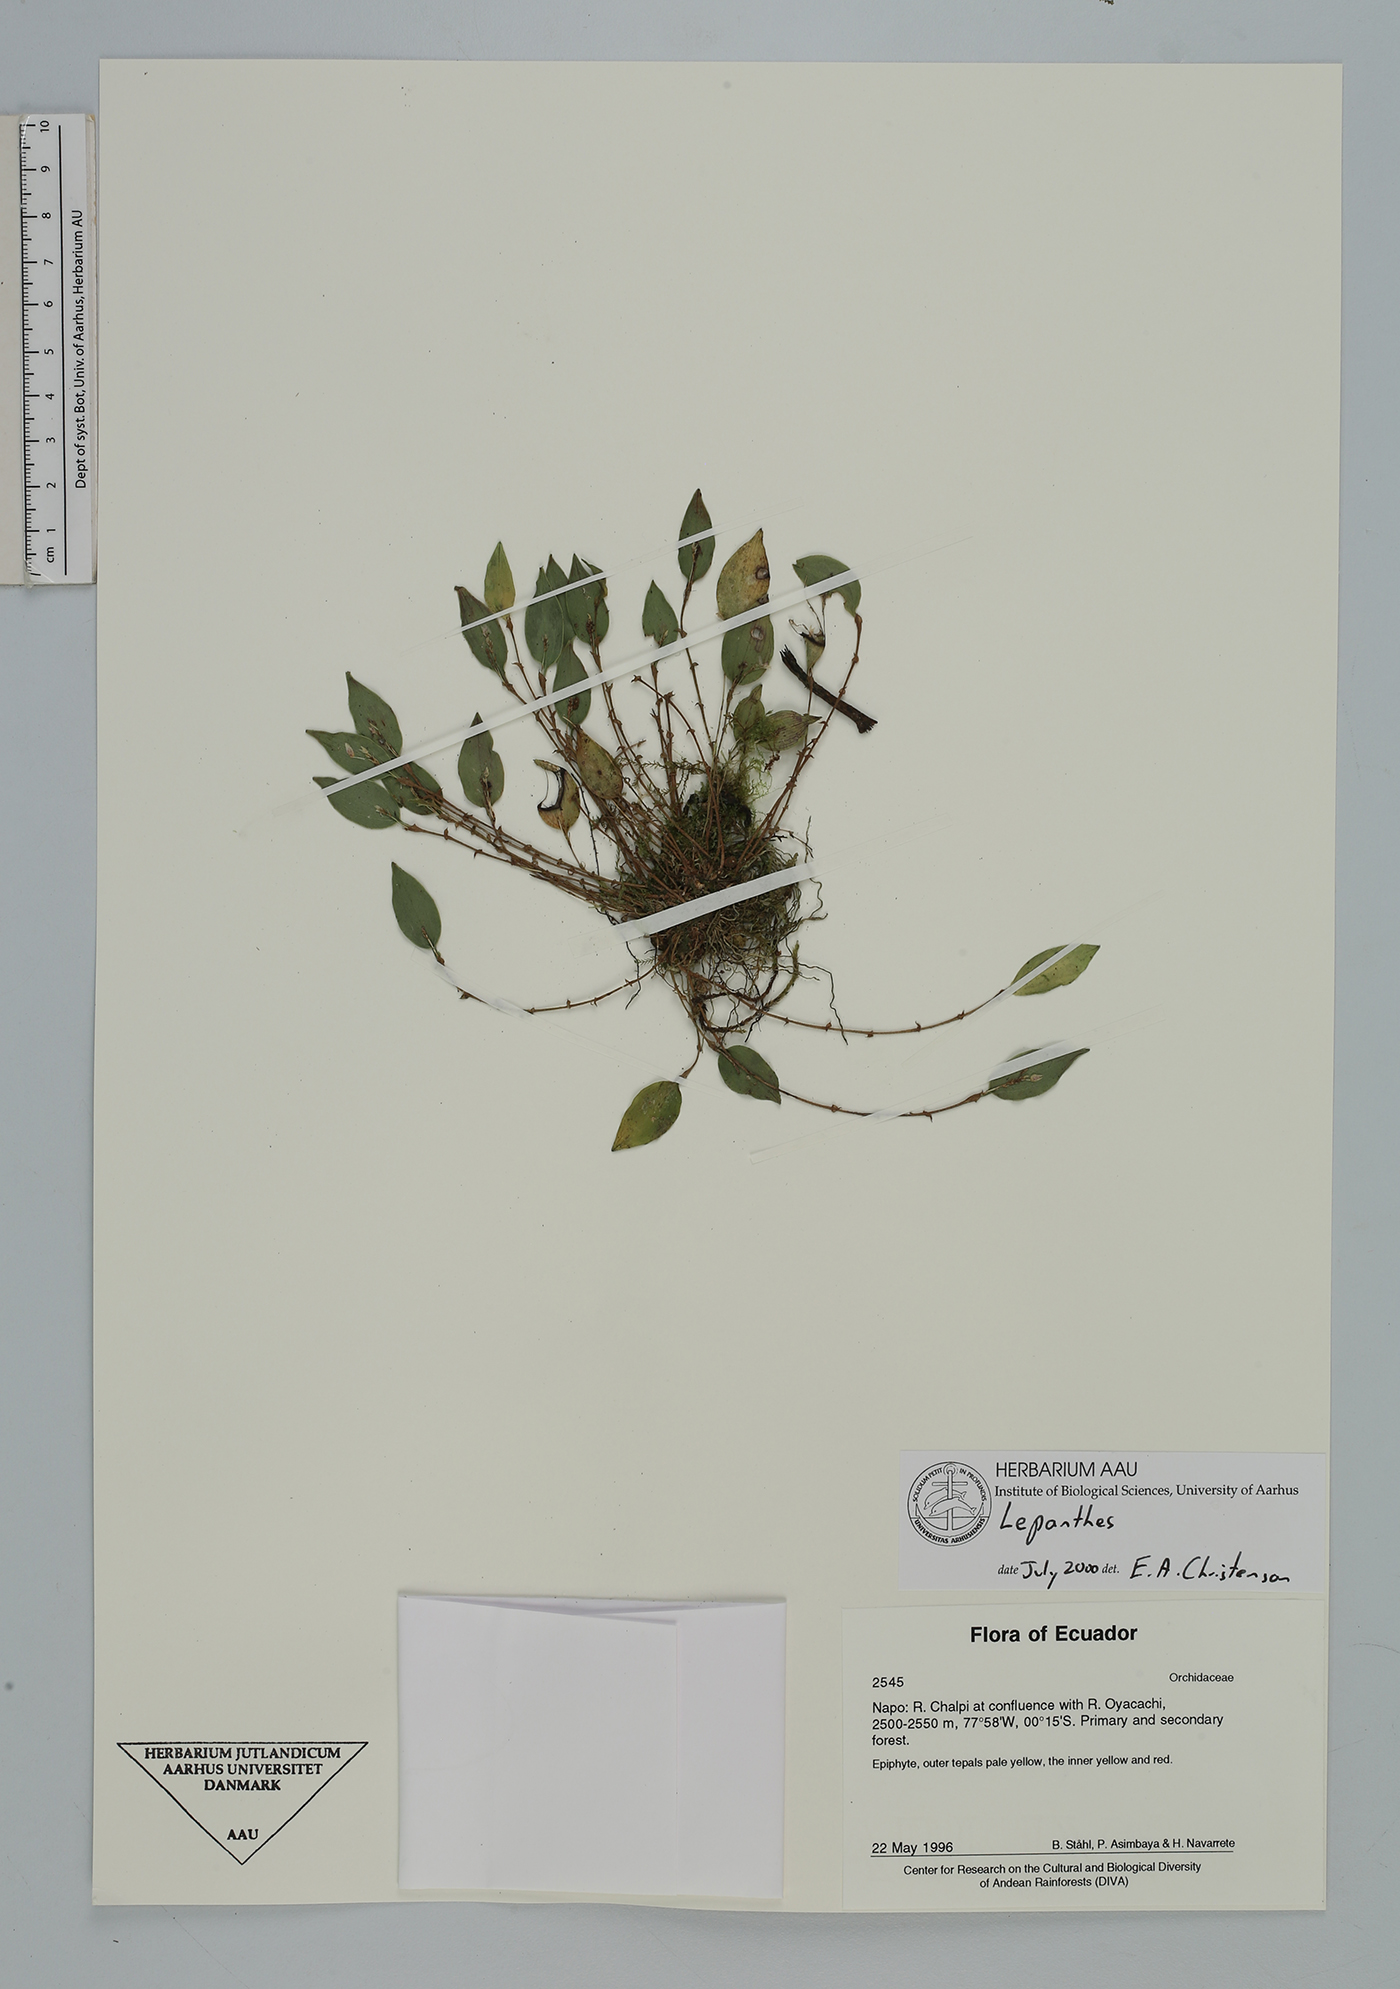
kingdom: Plantae
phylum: Tracheophyta
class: Liliopsida
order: Asparagales
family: Orchidaceae
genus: Lepanthes
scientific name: Lepanthes
